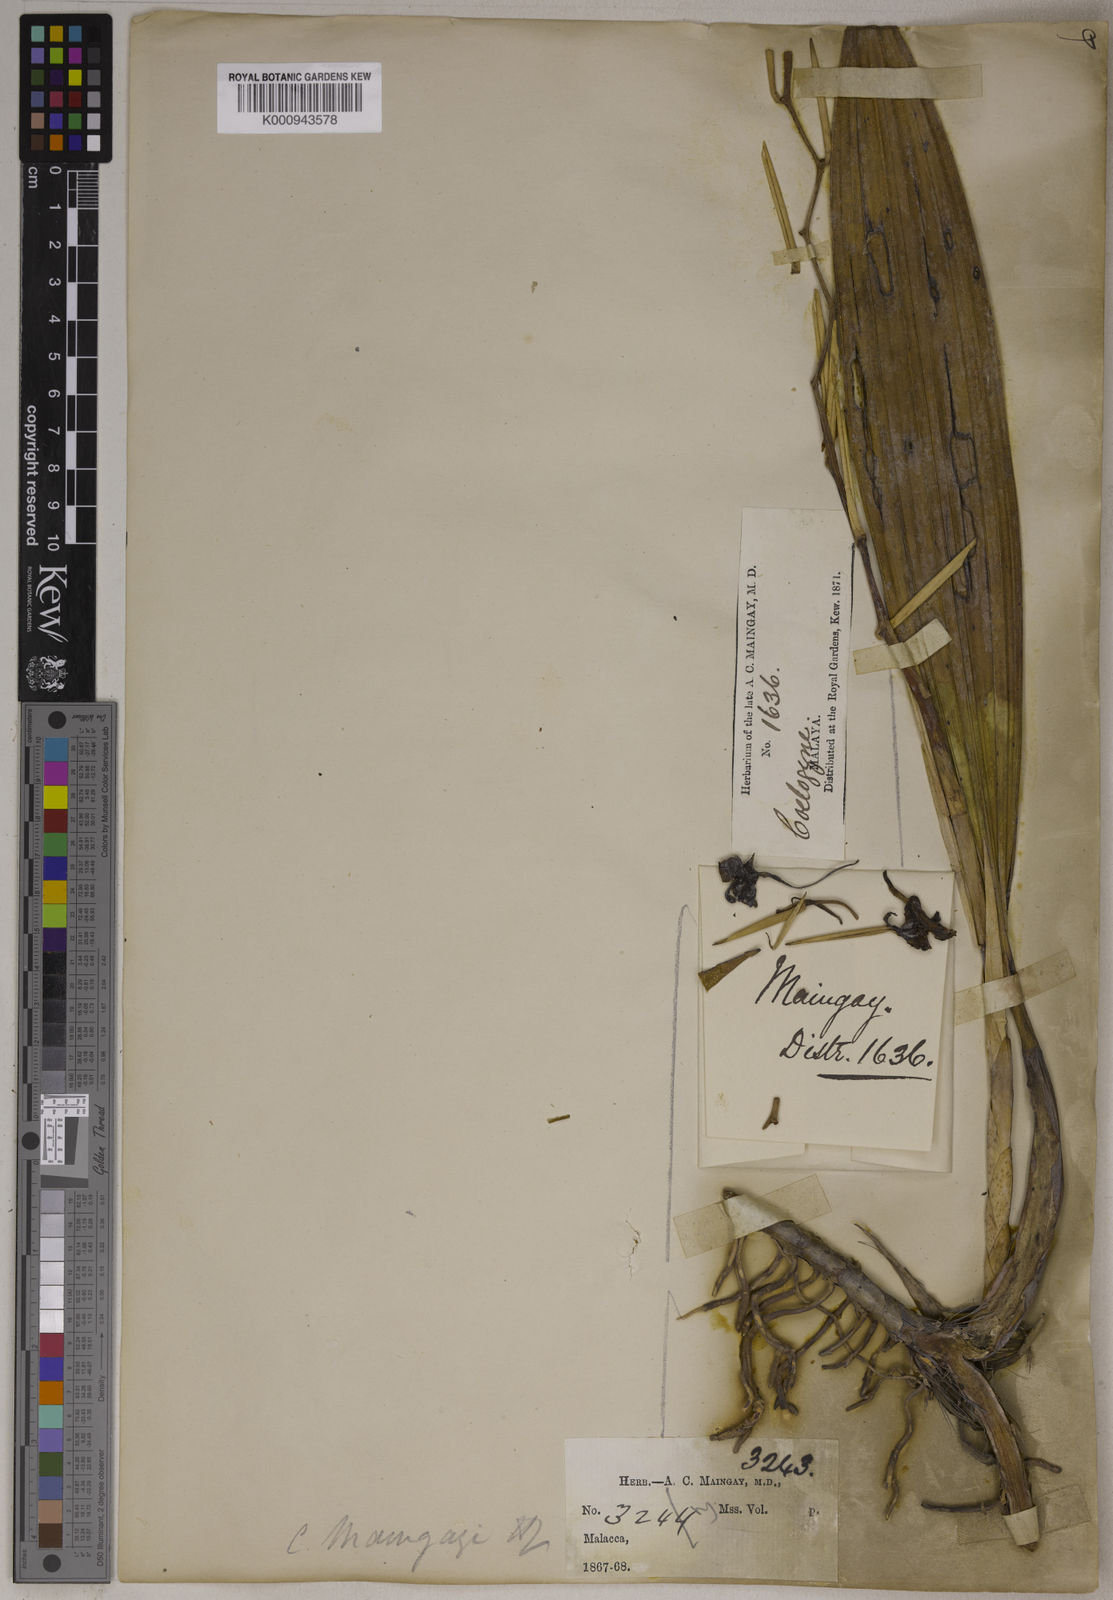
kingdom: Plantae
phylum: Tracheophyta
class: Liliopsida
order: Asparagales
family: Orchidaceae
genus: Coelogyne
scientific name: Coelogyne foerstermannii
